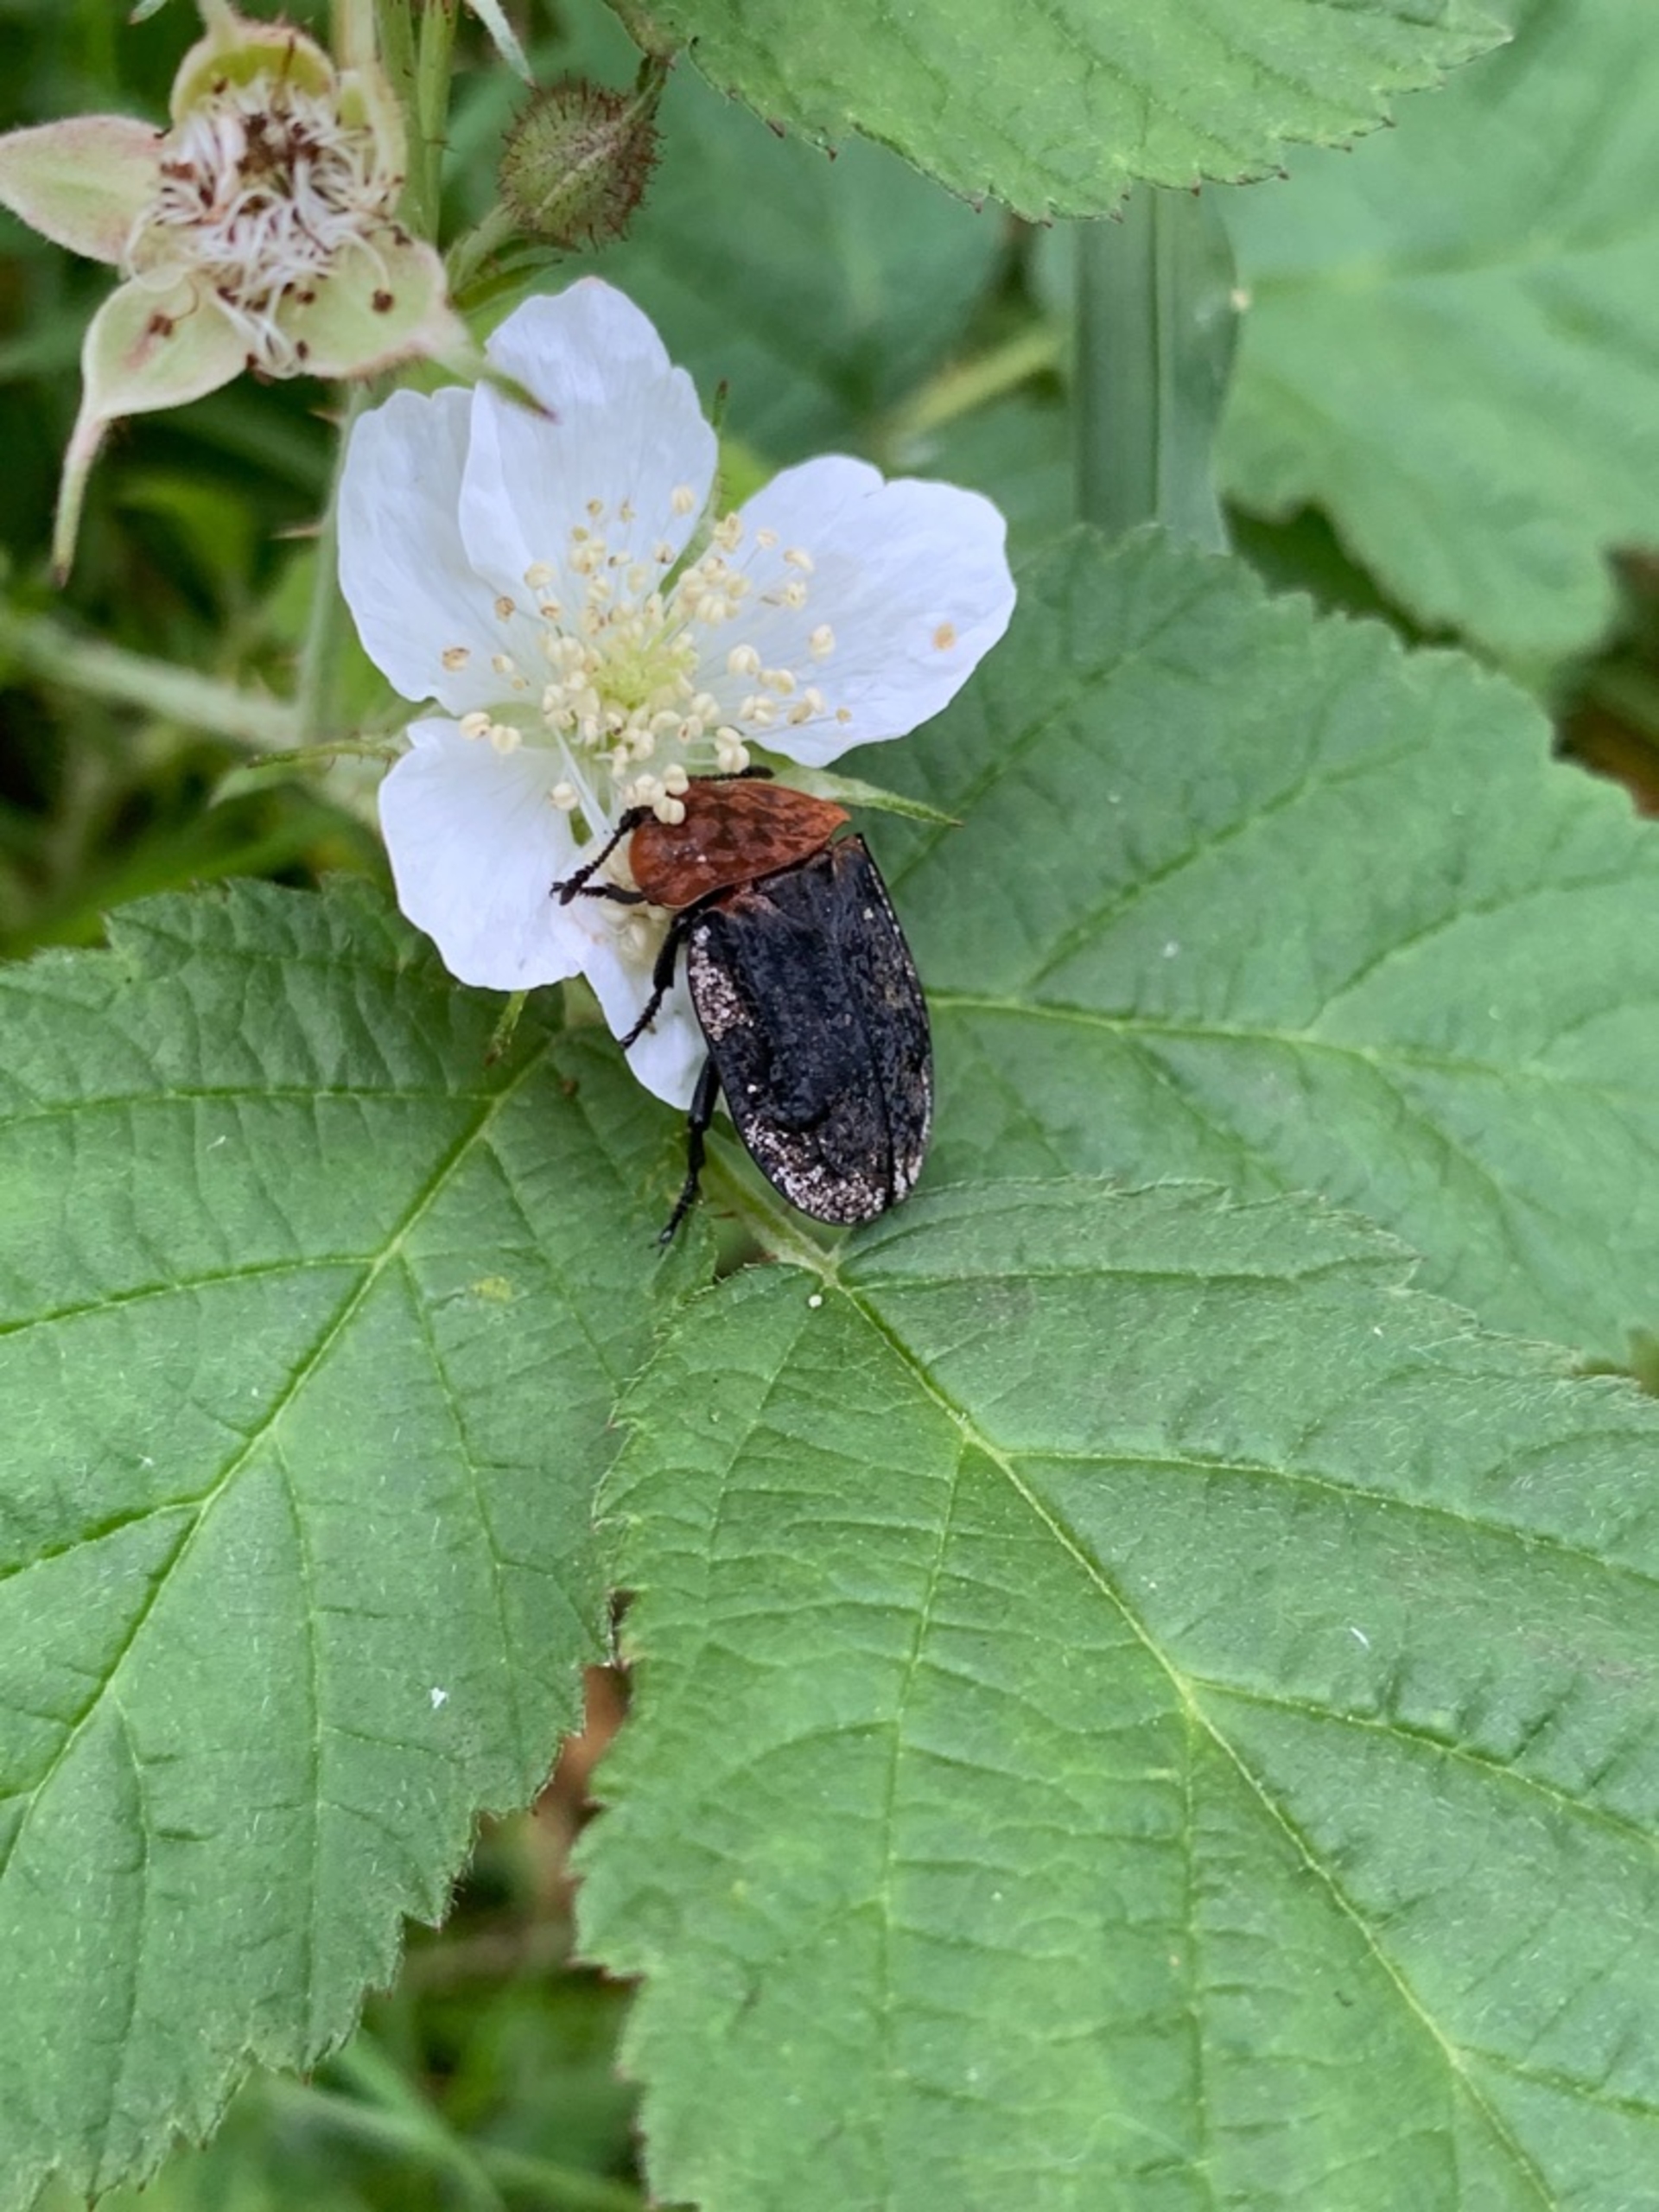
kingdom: Animalia
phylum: Arthropoda
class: Insecta
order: Coleoptera
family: Staphylinidae
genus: Oiceoptoma
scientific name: Oiceoptoma thoracicum
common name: Rødbrystet ådselbille
